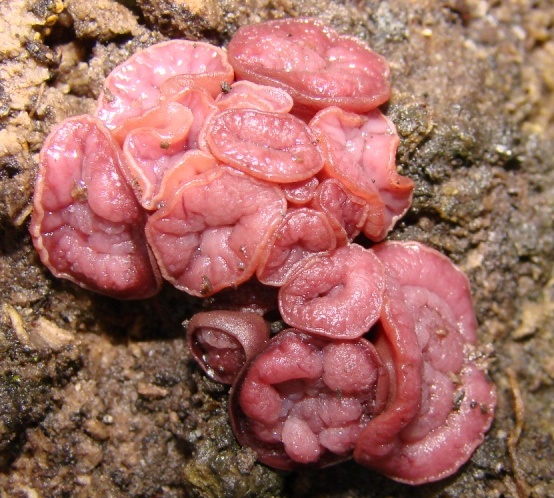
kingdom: Fungi
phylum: Ascomycota
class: Leotiomycetes
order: Helotiales
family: Gelatinodiscaceae
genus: Ascocoryne
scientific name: Ascocoryne cylichnium
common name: stor sejskive
